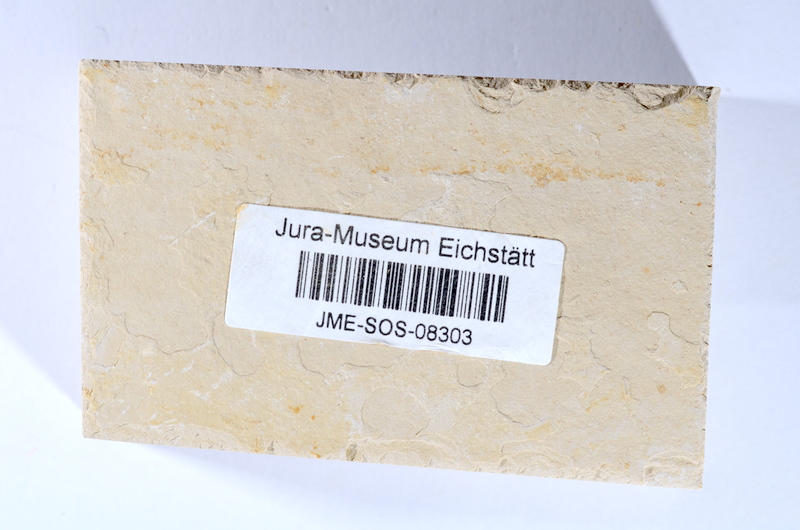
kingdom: Animalia
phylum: Chordata
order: Salmoniformes
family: Orthogonikleithridae
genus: Leptolepides
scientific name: Leptolepides sprattiformis
